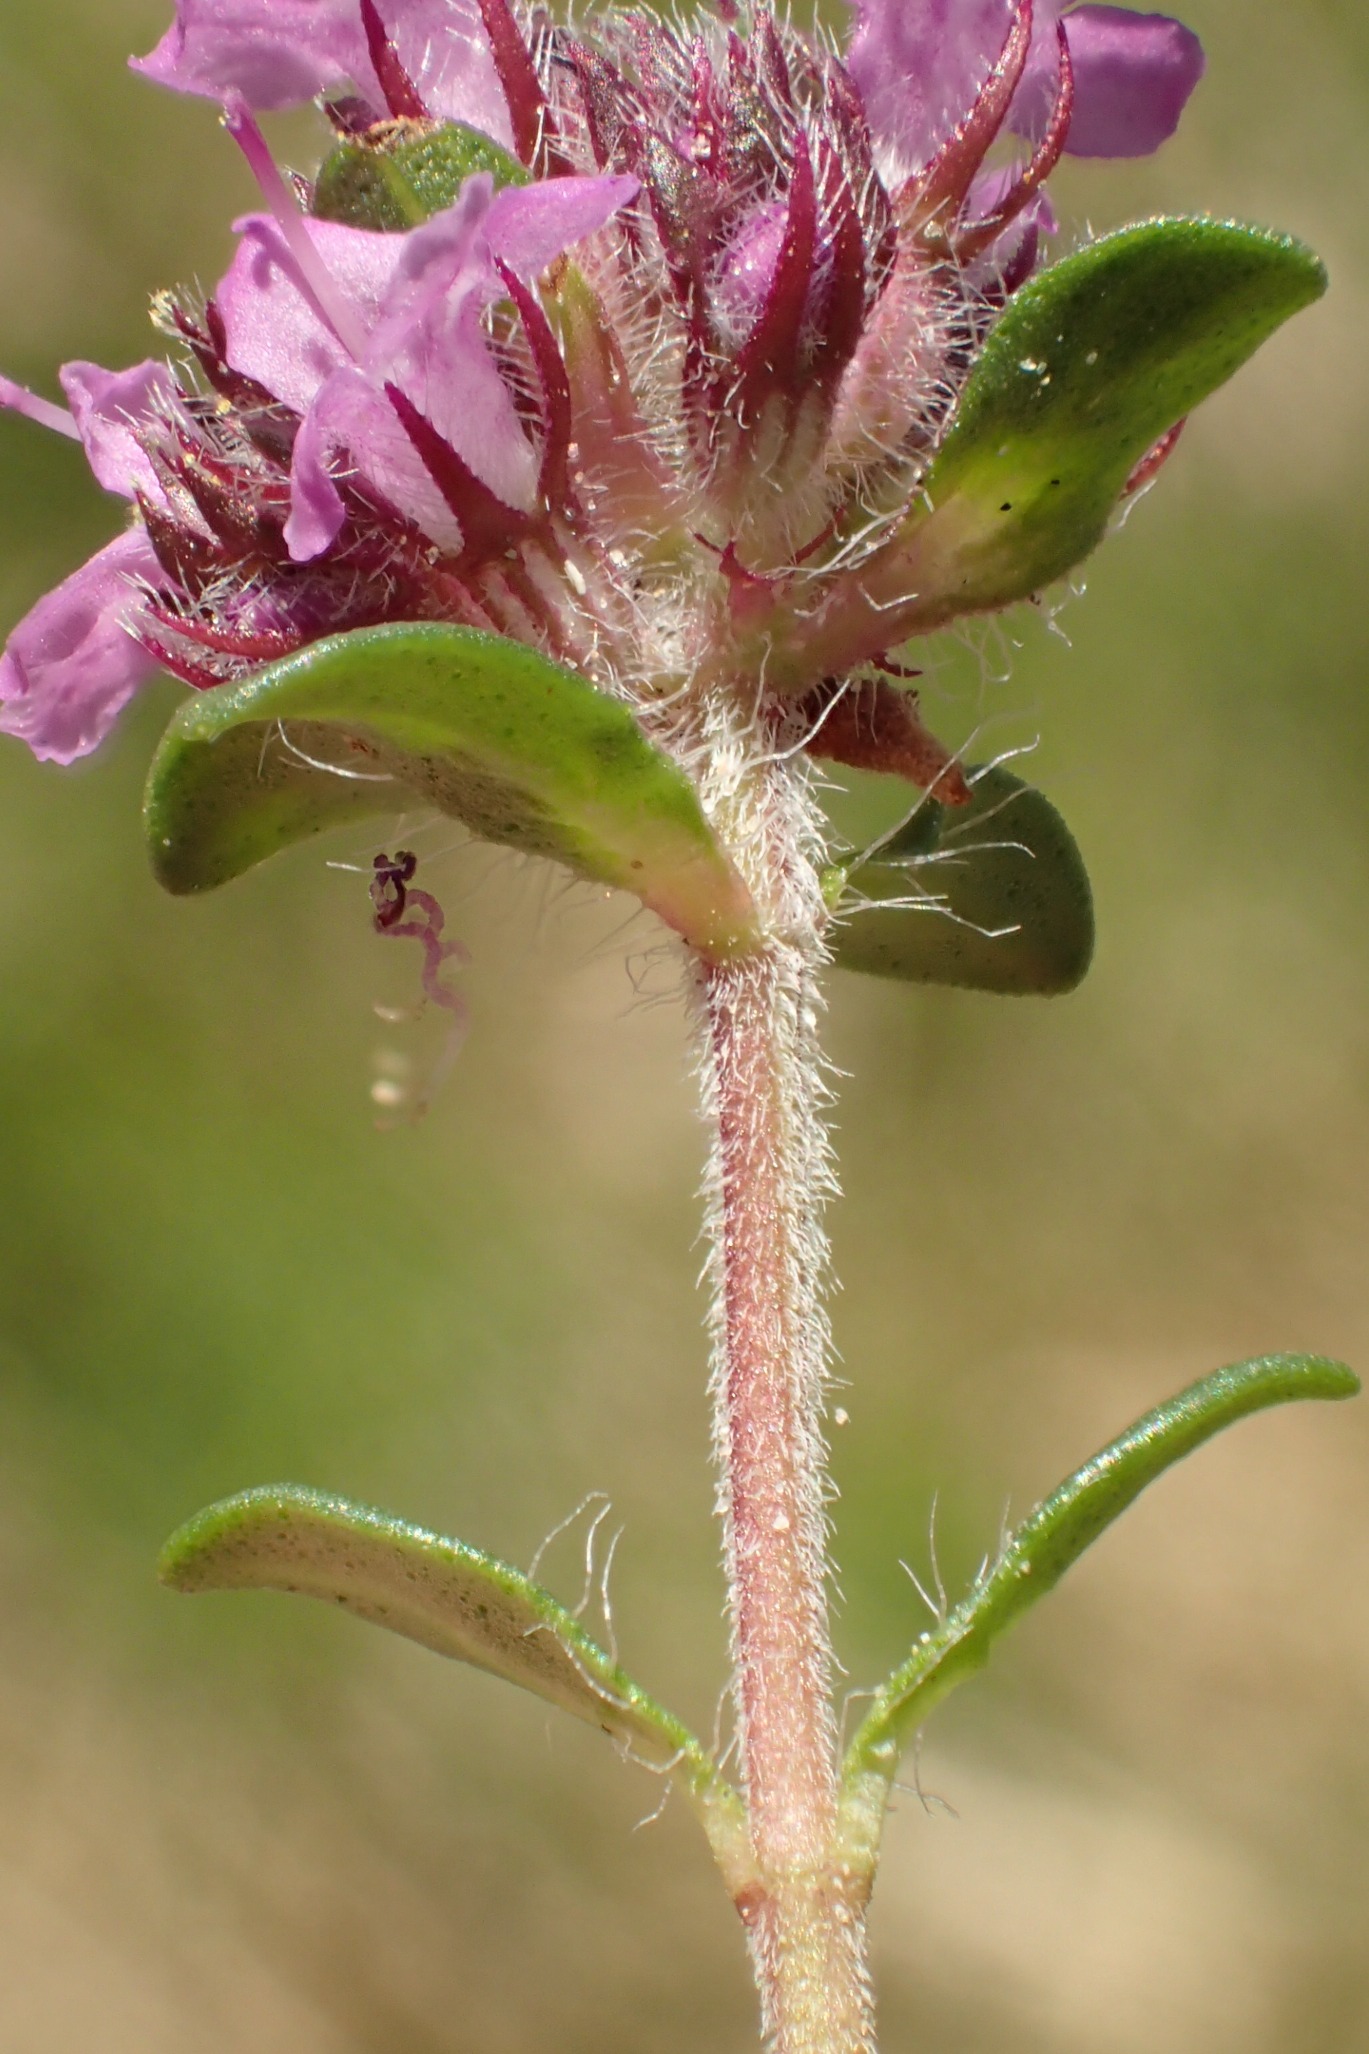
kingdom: Plantae
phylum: Tracheophyta
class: Magnoliopsida
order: Lamiales
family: Lamiaceae
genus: Thymus
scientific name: Thymus serpyllum
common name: Smalbladet timian
